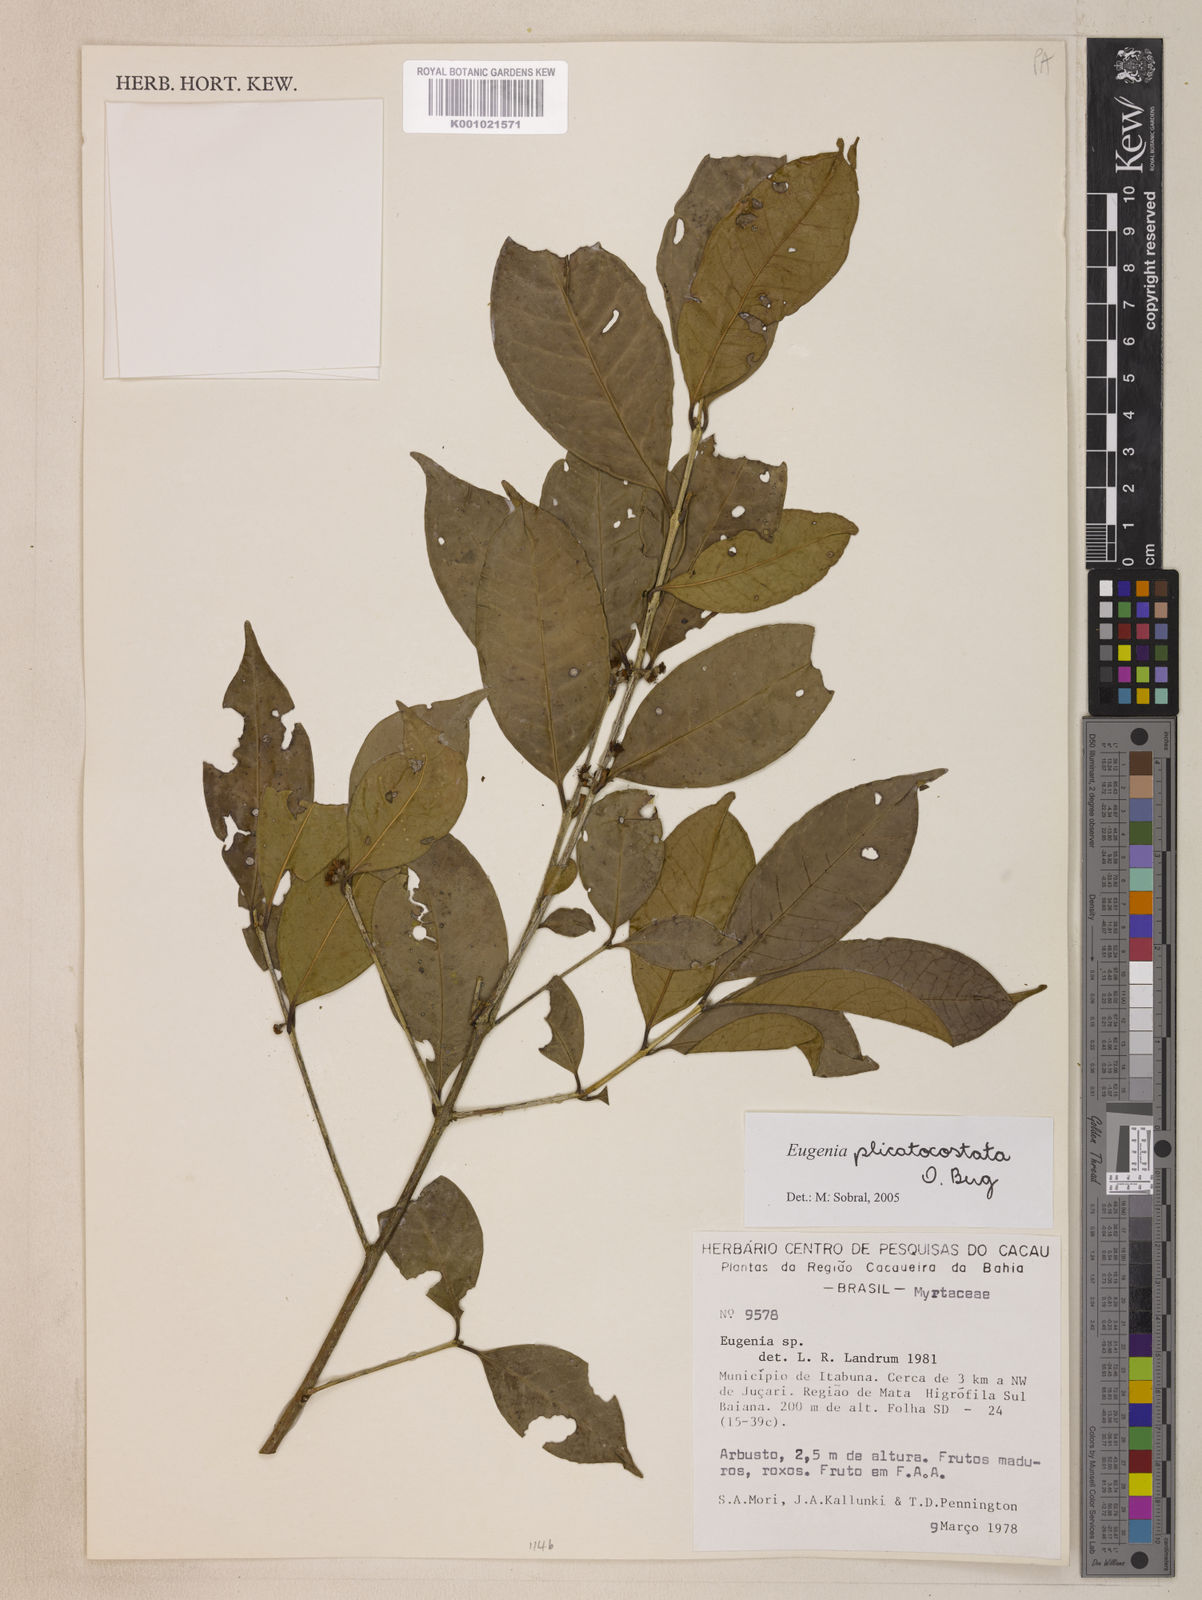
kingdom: Plantae
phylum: Tracheophyta
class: Magnoliopsida
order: Myrtales
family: Myrtaceae
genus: Eugenia
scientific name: Eugenia plicatocostata
